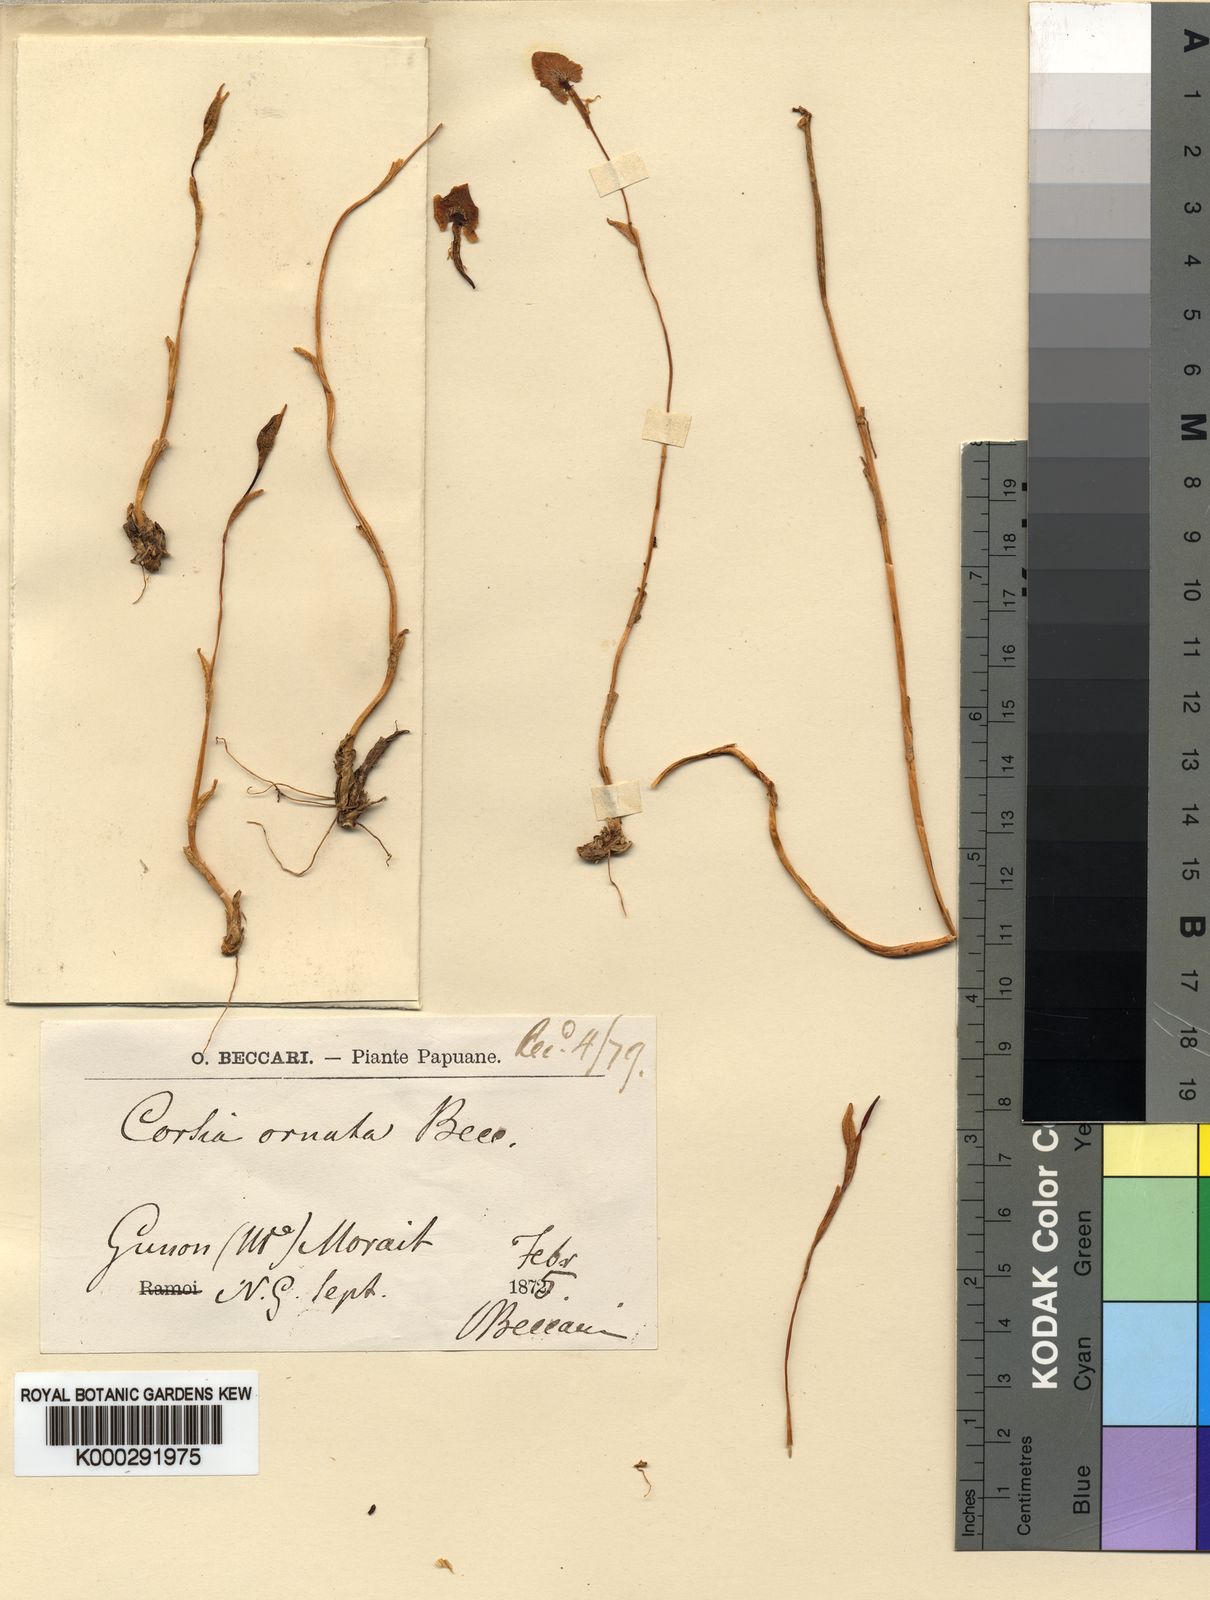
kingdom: Plantae
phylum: Tracheophyta
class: Liliopsida
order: Liliales
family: Corsiaceae
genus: Corsia
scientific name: Corsia ornata
